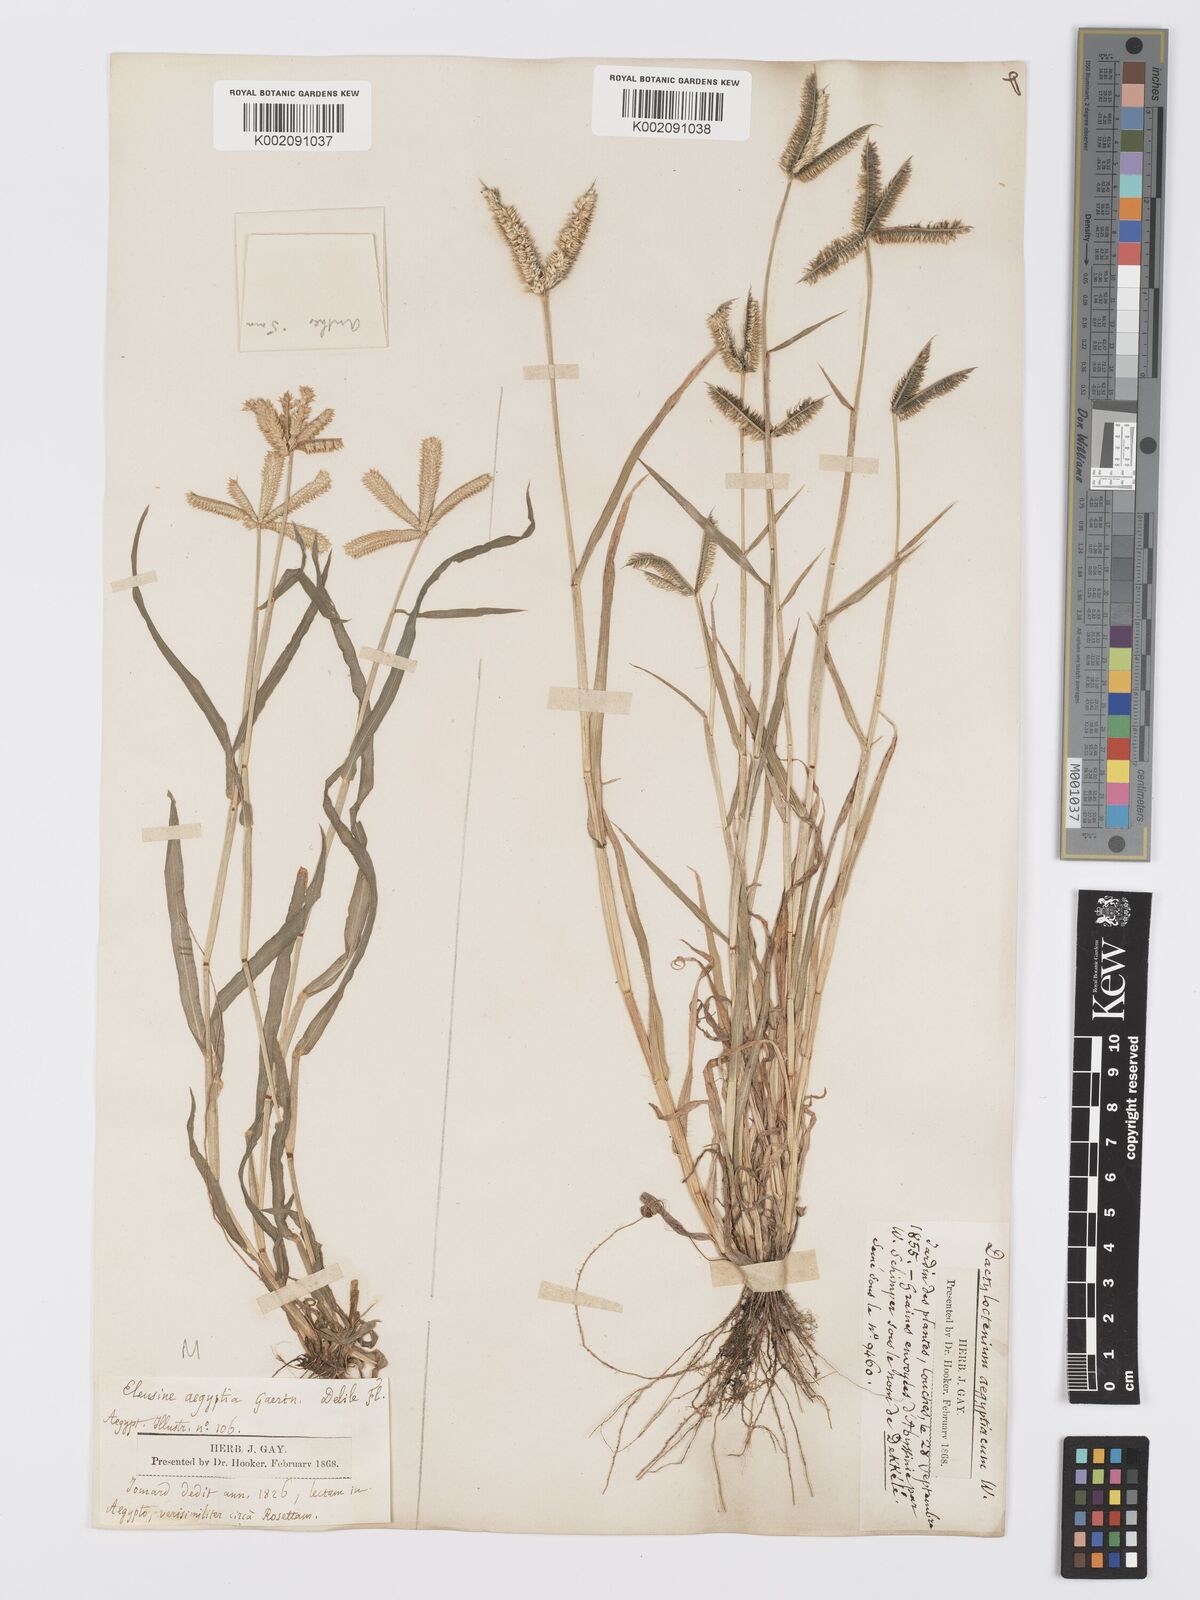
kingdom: Plantae
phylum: Tracheophyta
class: Liliopsida
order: Poales
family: Poaceae
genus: Dactyloctenium
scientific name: Dactyloctenium aegyptium
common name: Egyptian grass
